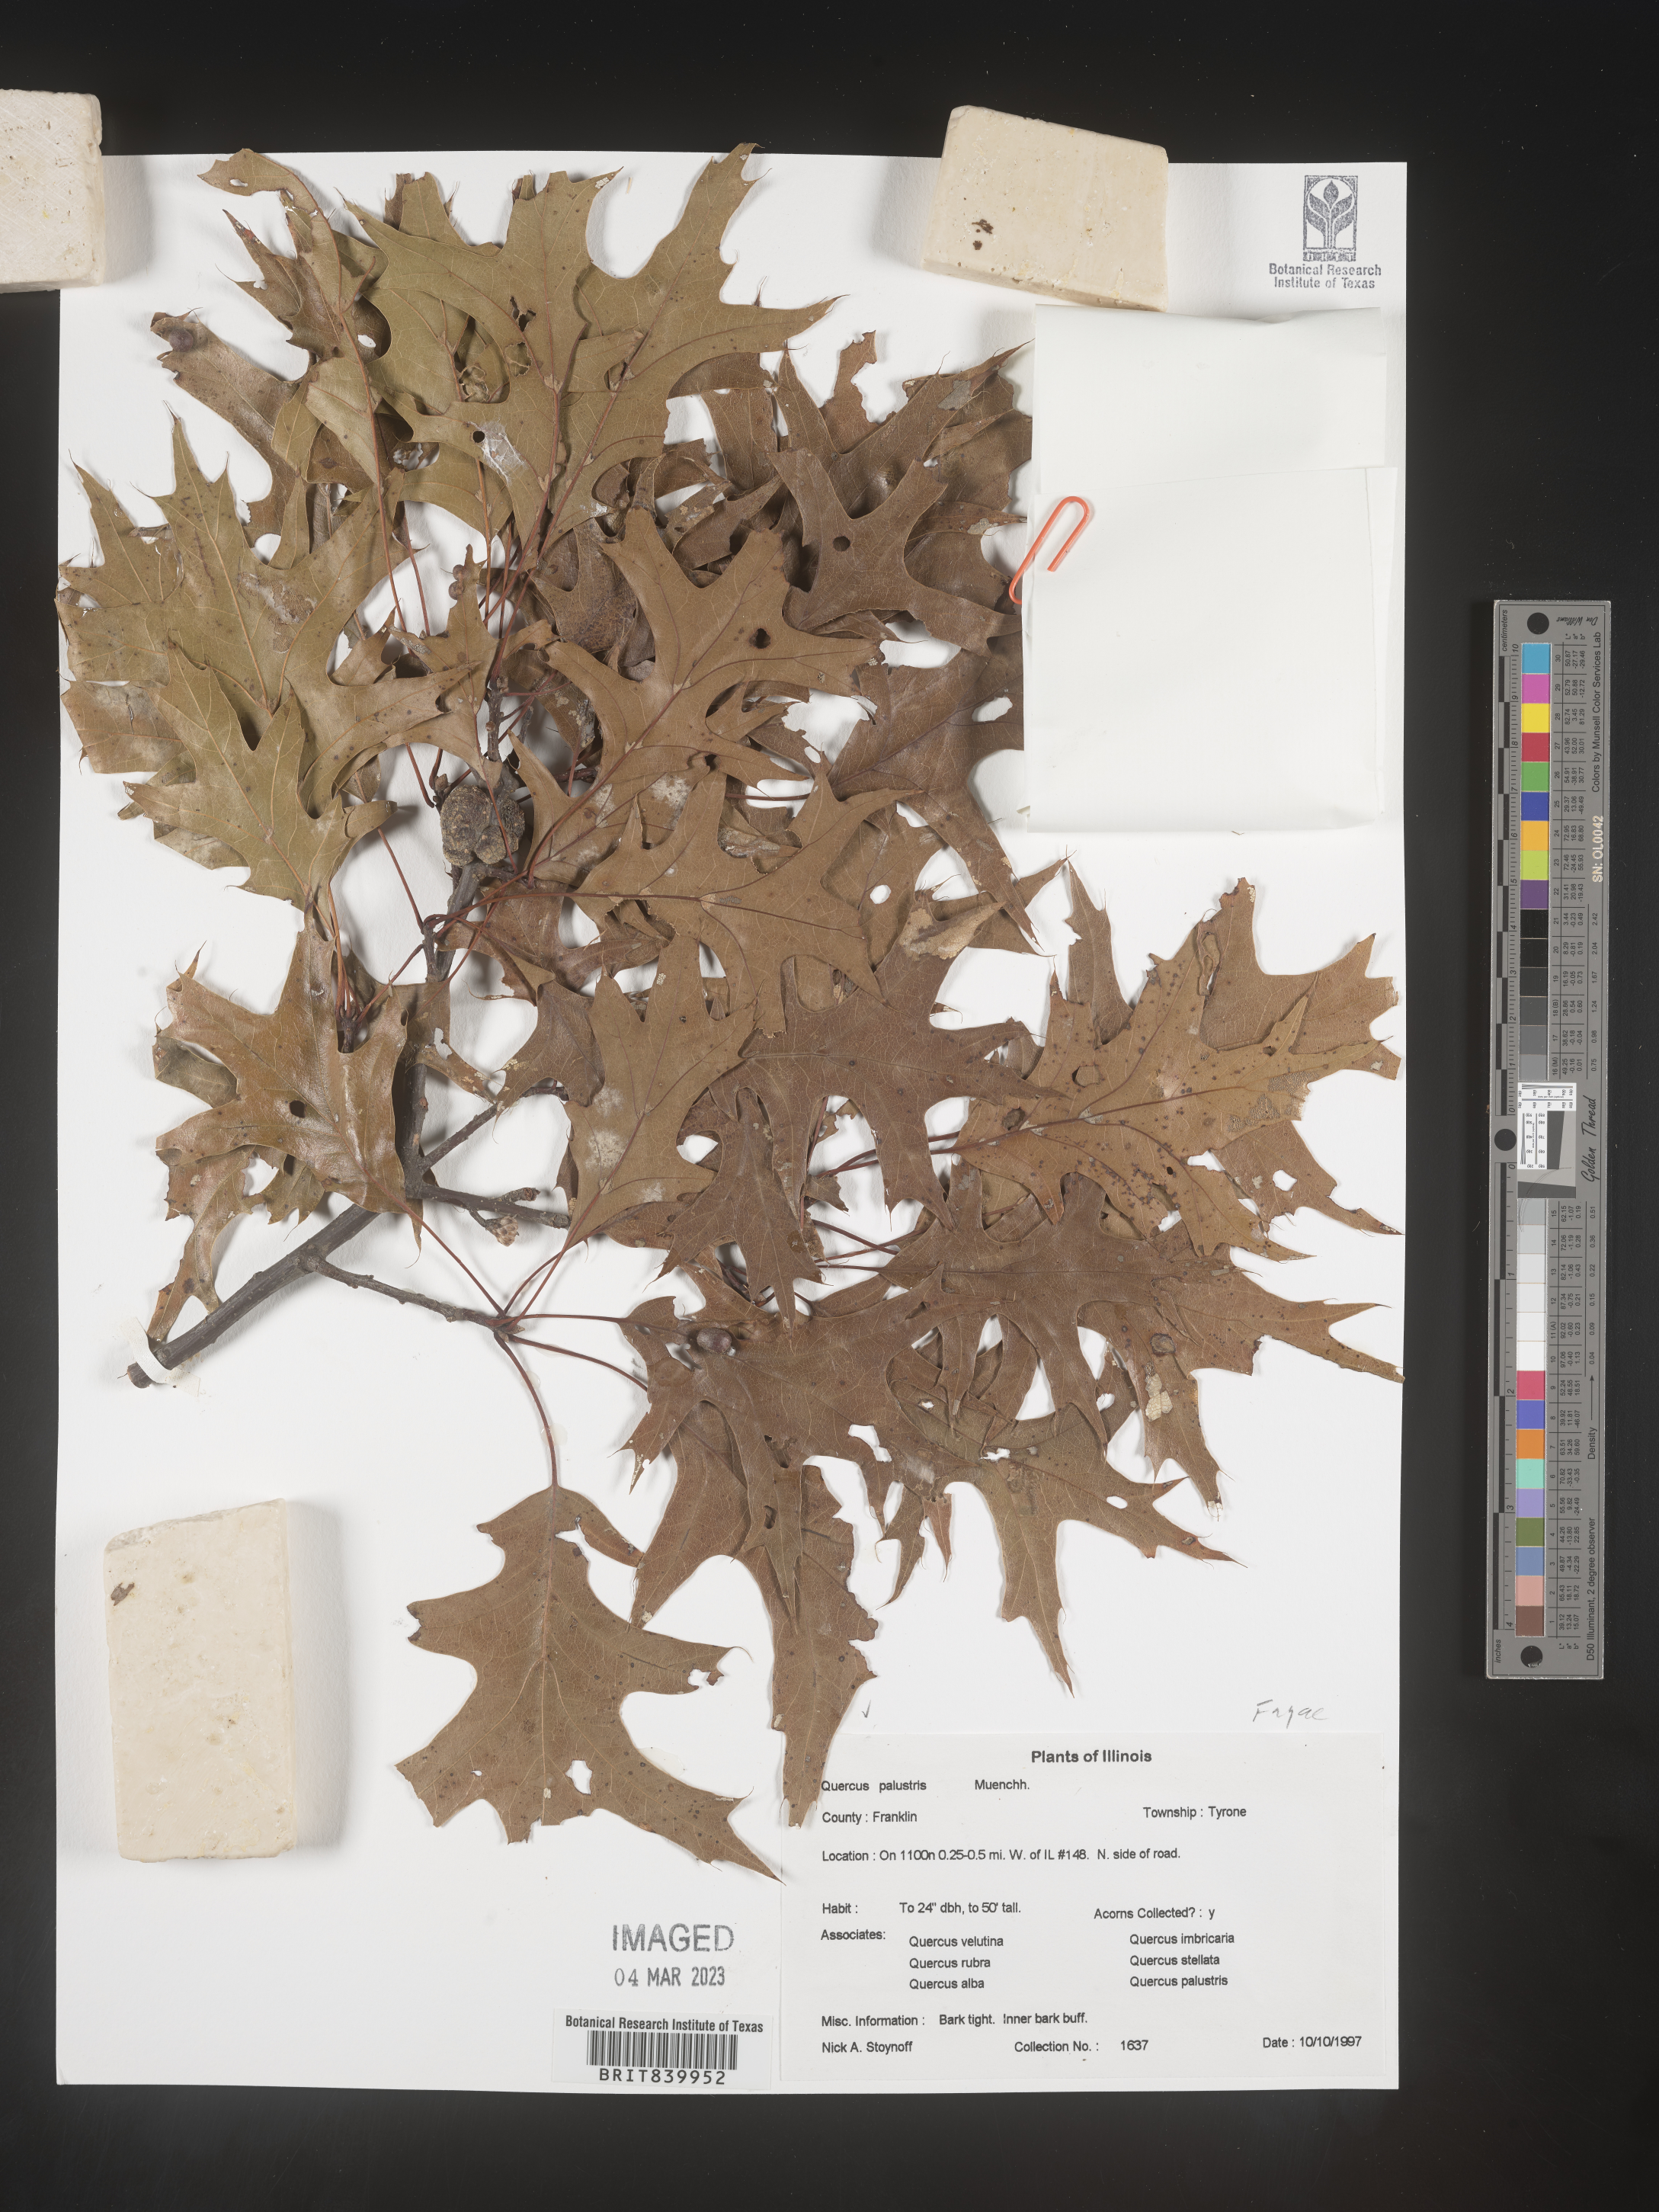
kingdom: Plantae
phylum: Tracheophyta
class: Magnoliopsida
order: Fagales
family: Fagaceae
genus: Quercus
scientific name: Quercus palustris
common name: Pin oak
